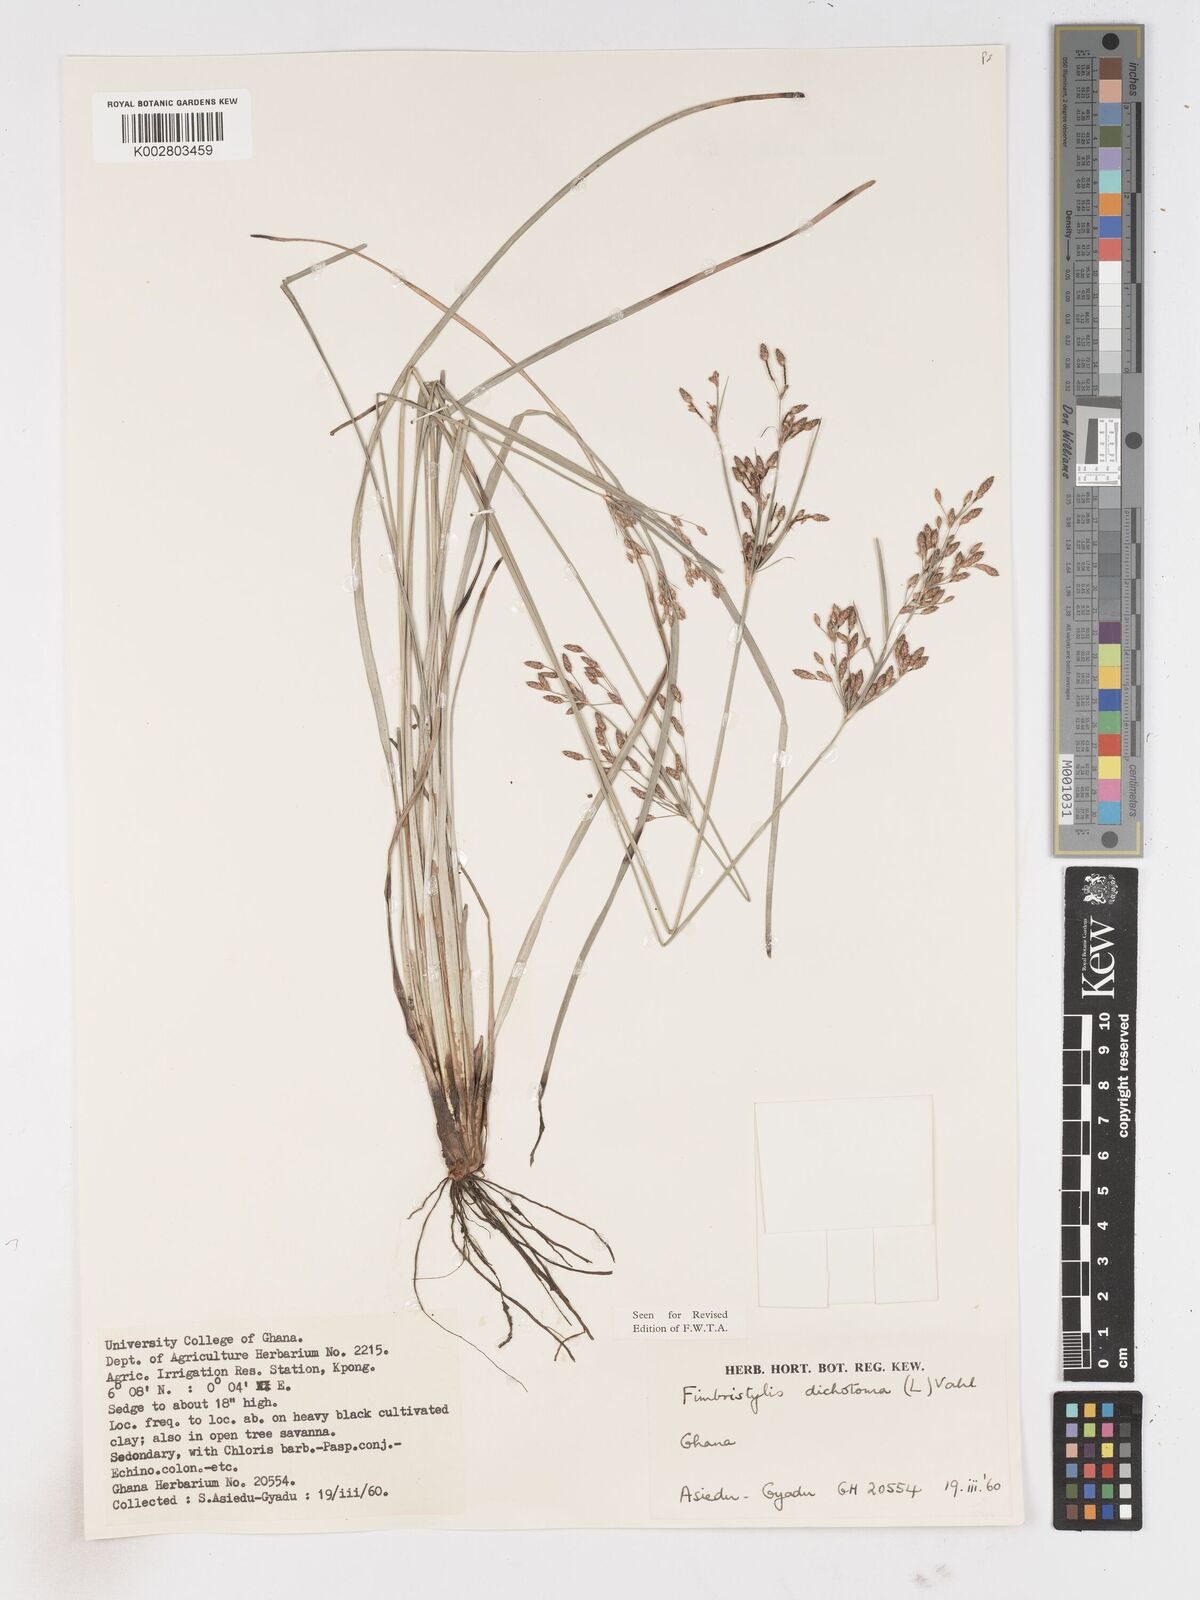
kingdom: Plantae
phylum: Tracheophyta
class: Liliopsida
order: Poales
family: Cyperaceae
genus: Fimbristylis
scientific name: Fimbristylis dichotoma
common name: Forked fimbry
